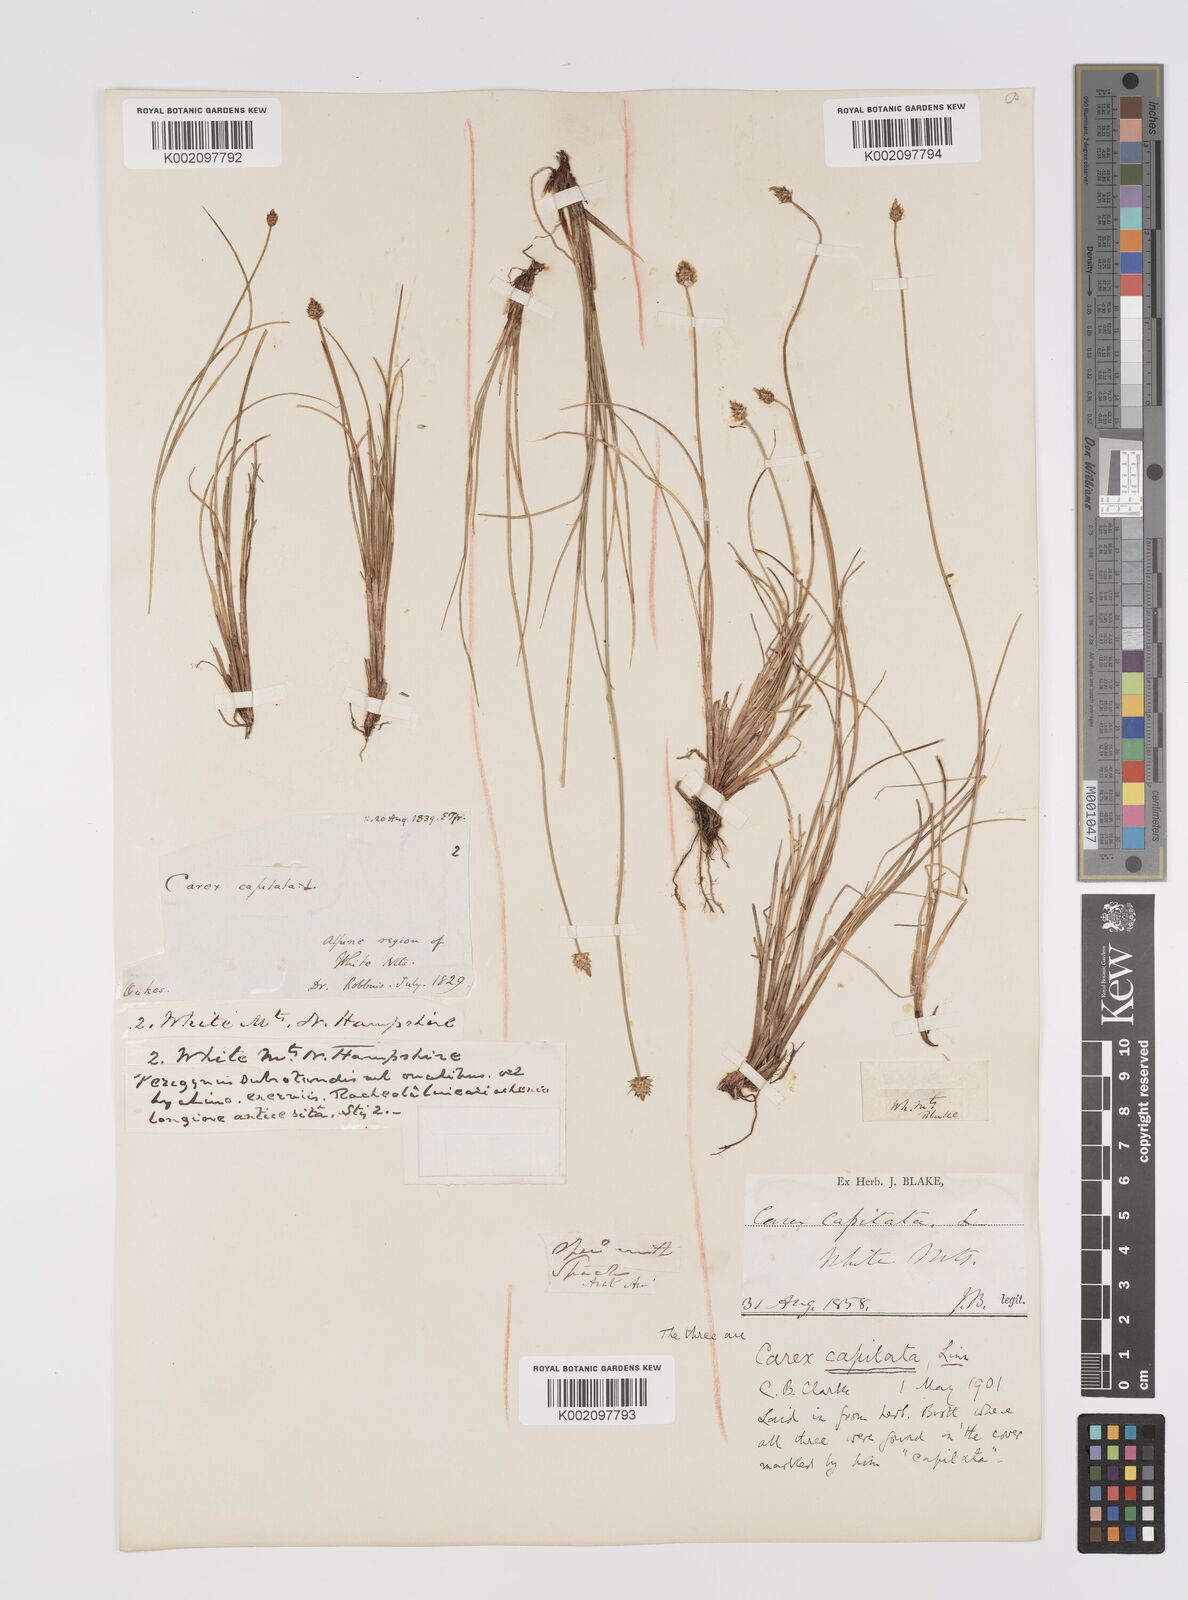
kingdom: Plantae
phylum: Tracheophyta
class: Liliopsida
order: Poales
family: Cyperaceae
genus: Carex
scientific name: Carex capitata
